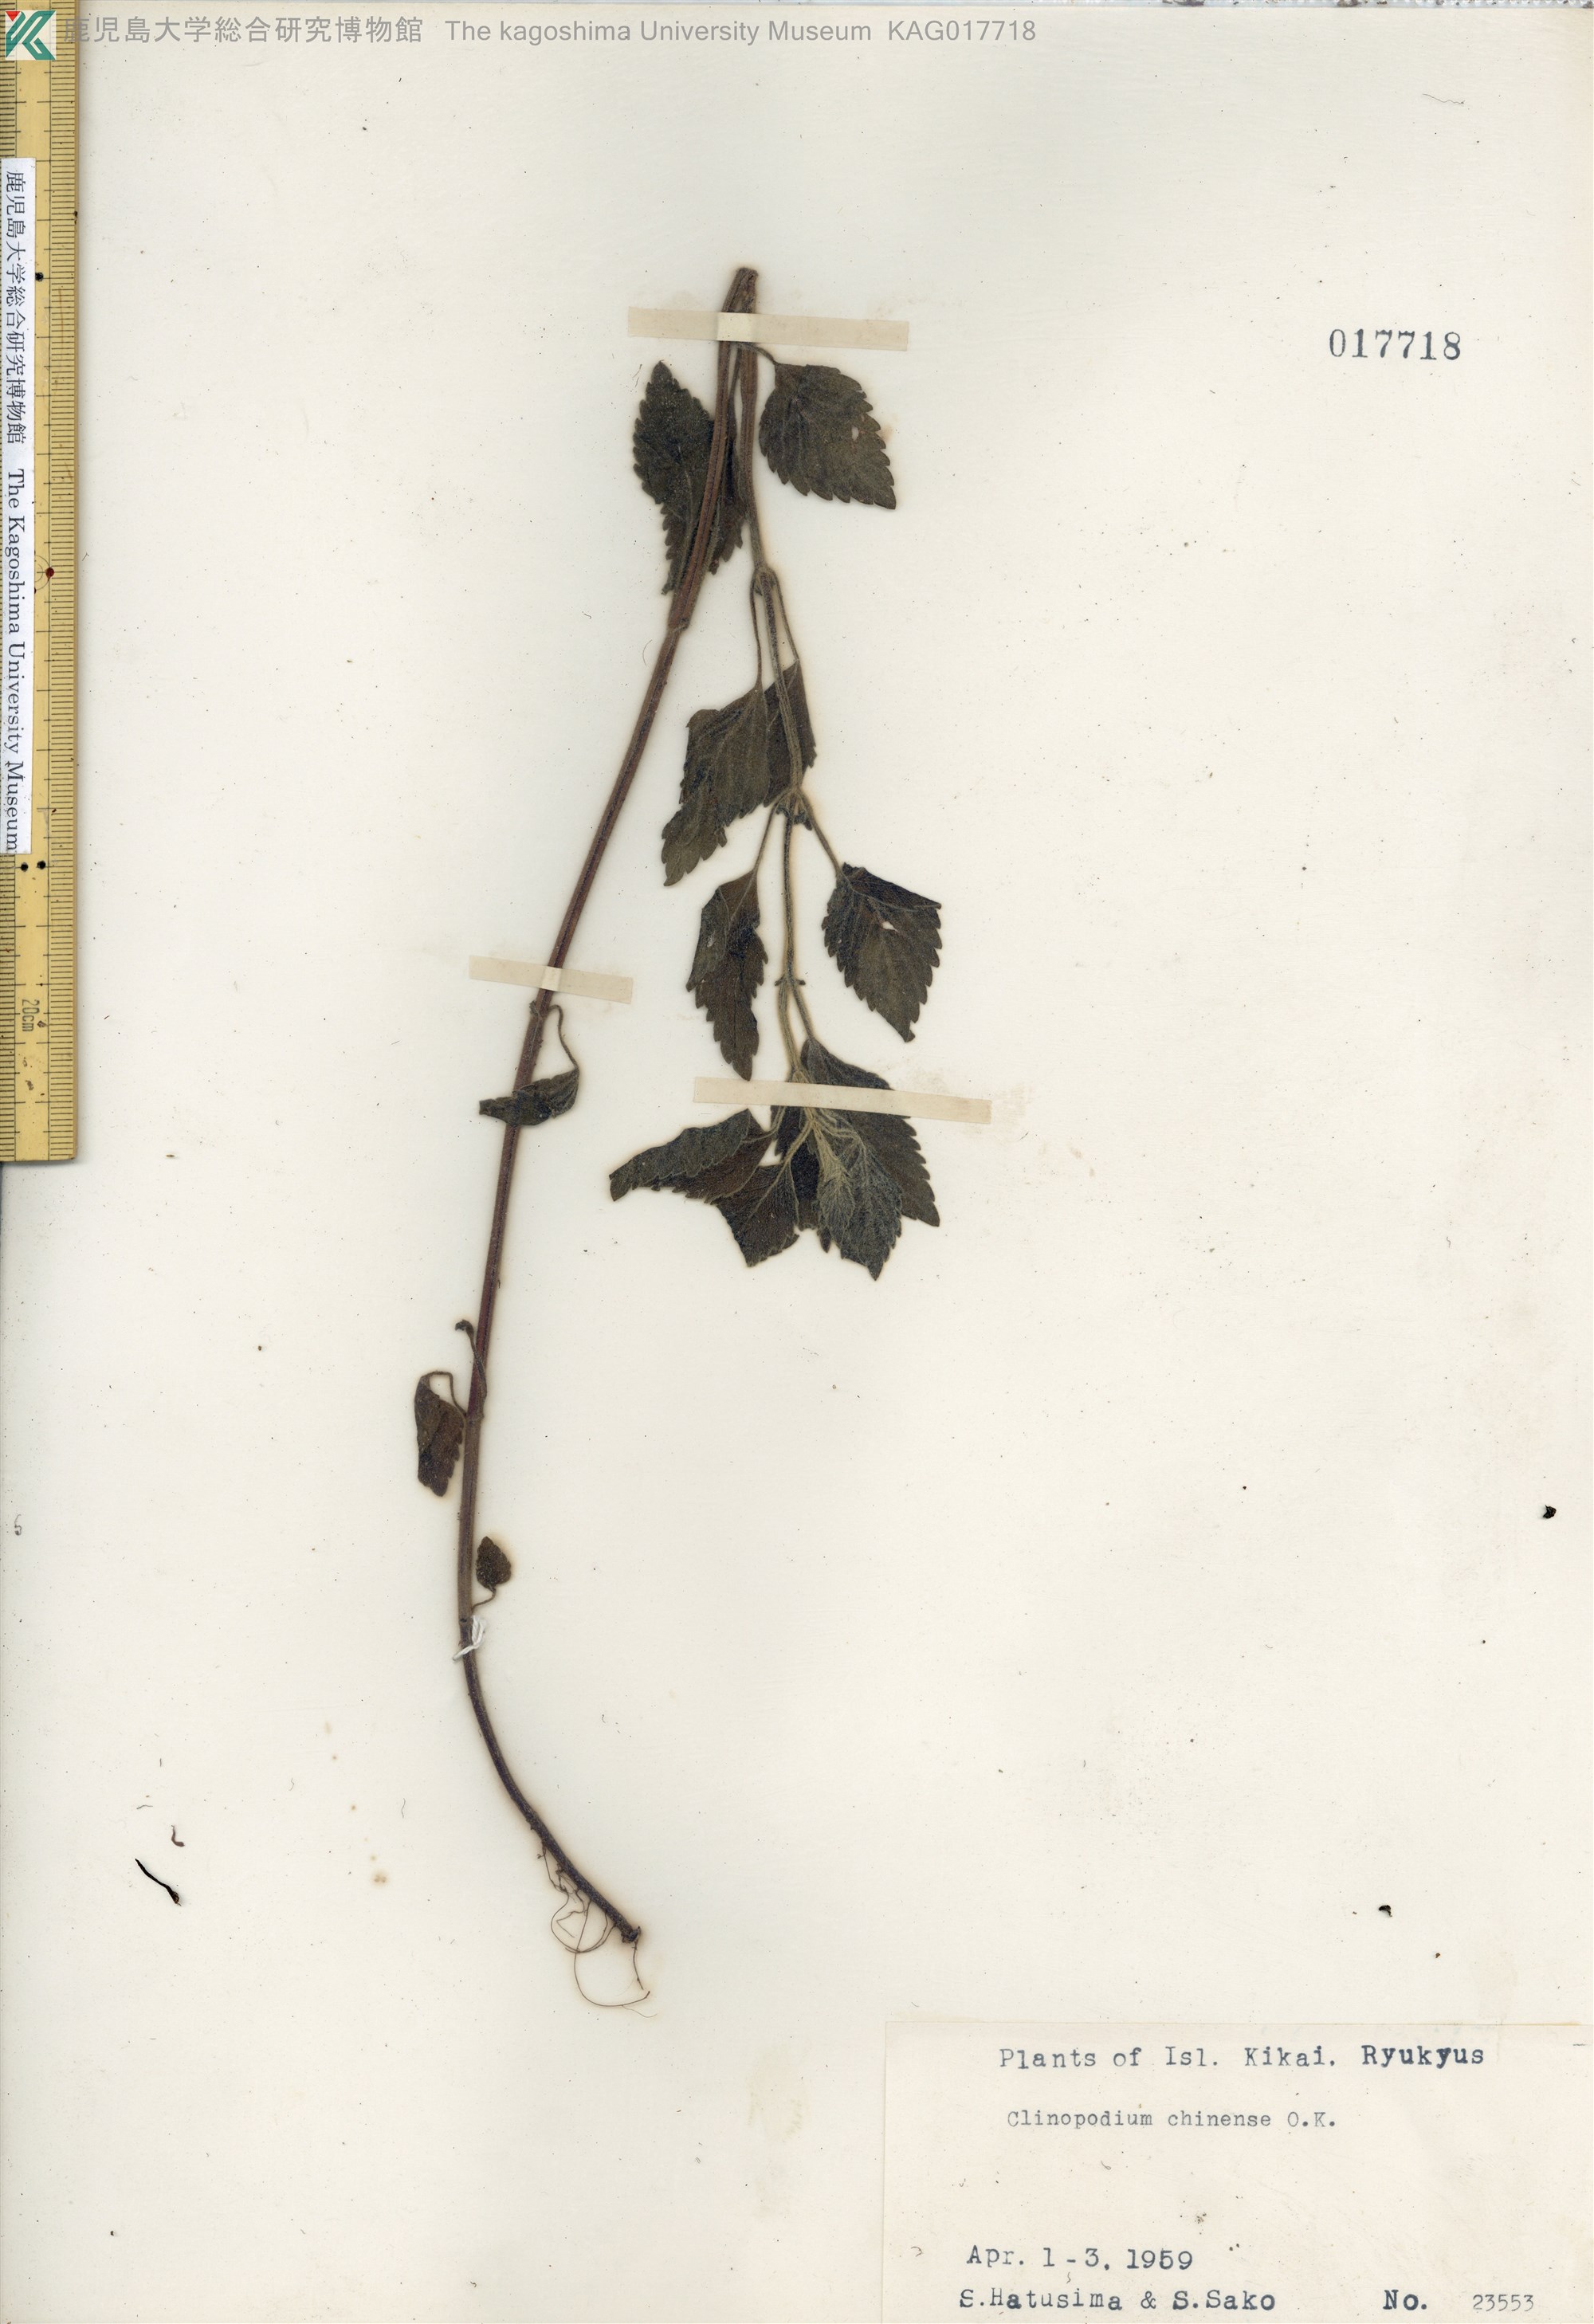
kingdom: Plantae
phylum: Tracheophyta
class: Magnoliopsida
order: Lamiales
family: Lamiaceae
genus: Clinopodium
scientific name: Clinopodium chinense
